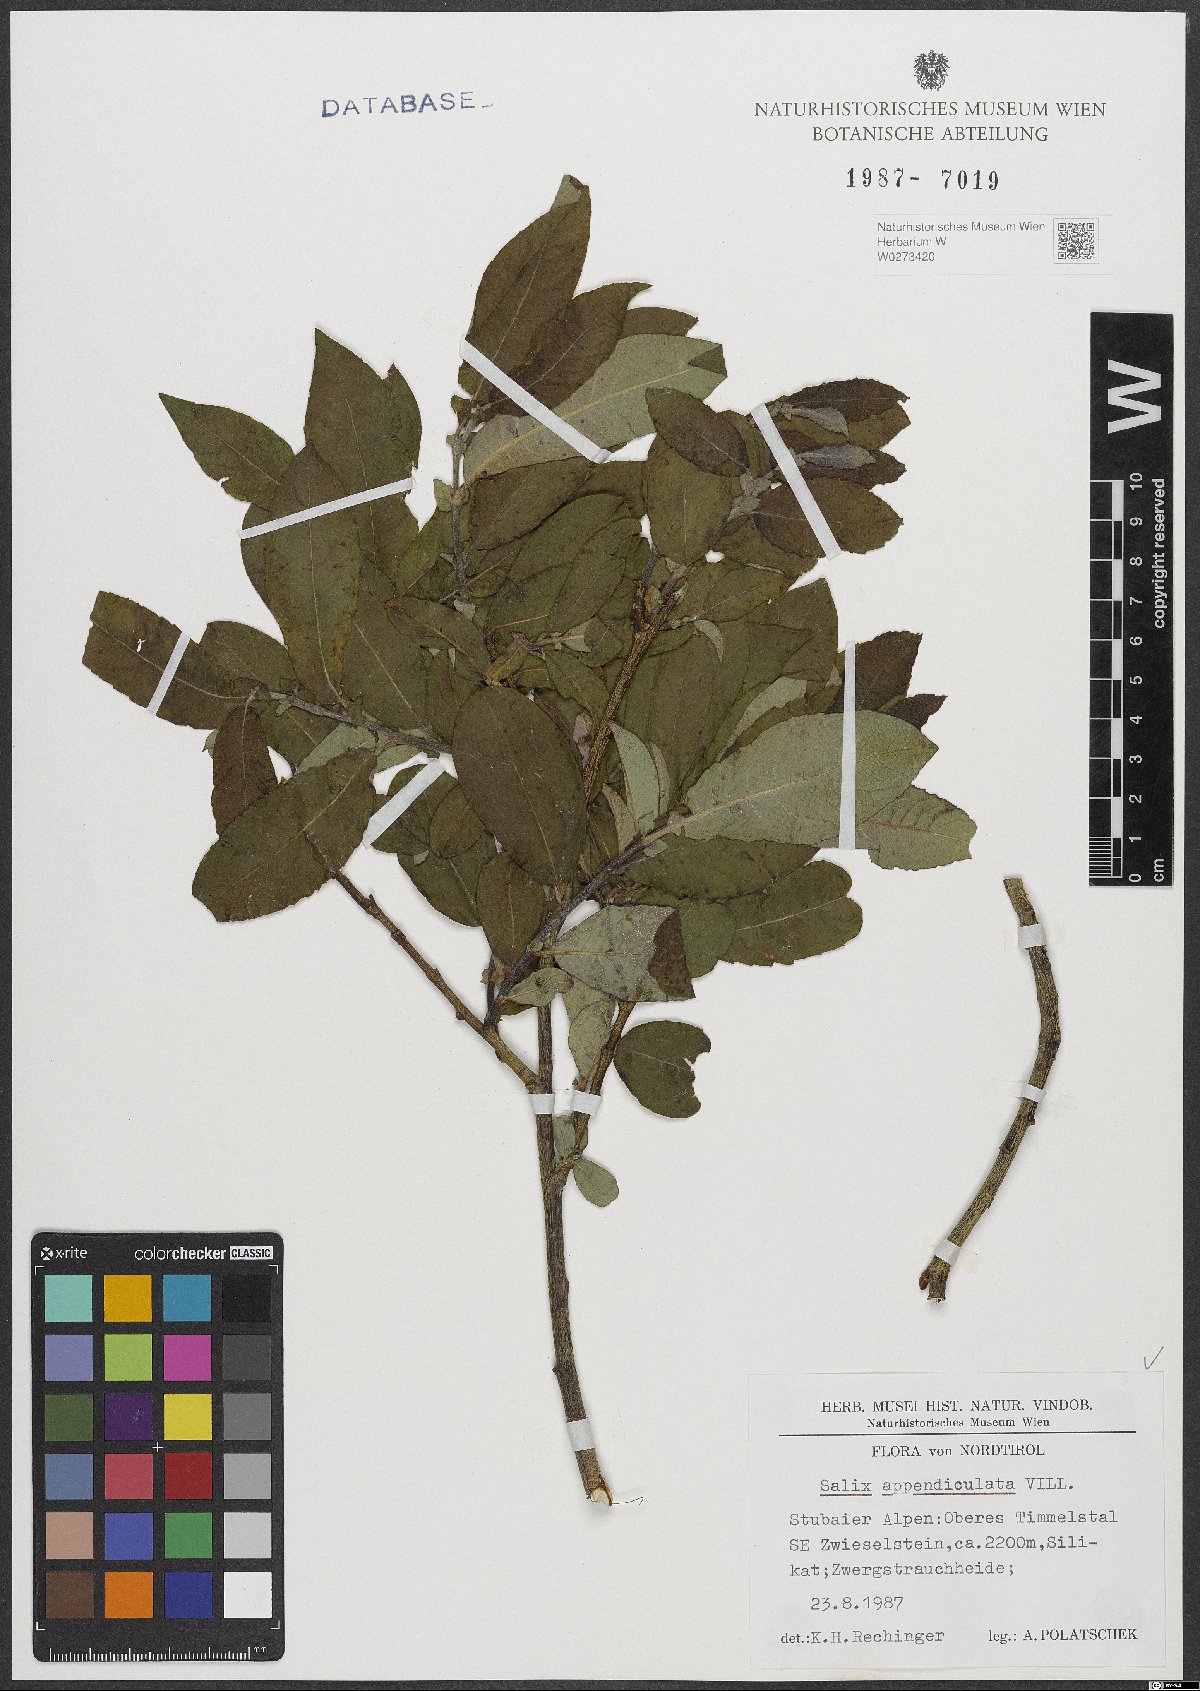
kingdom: Plantae
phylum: Tracheophyta
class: Magnoliopsida
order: Malpighiales
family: Salicaceae
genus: Salix
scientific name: Salix appendiculata
